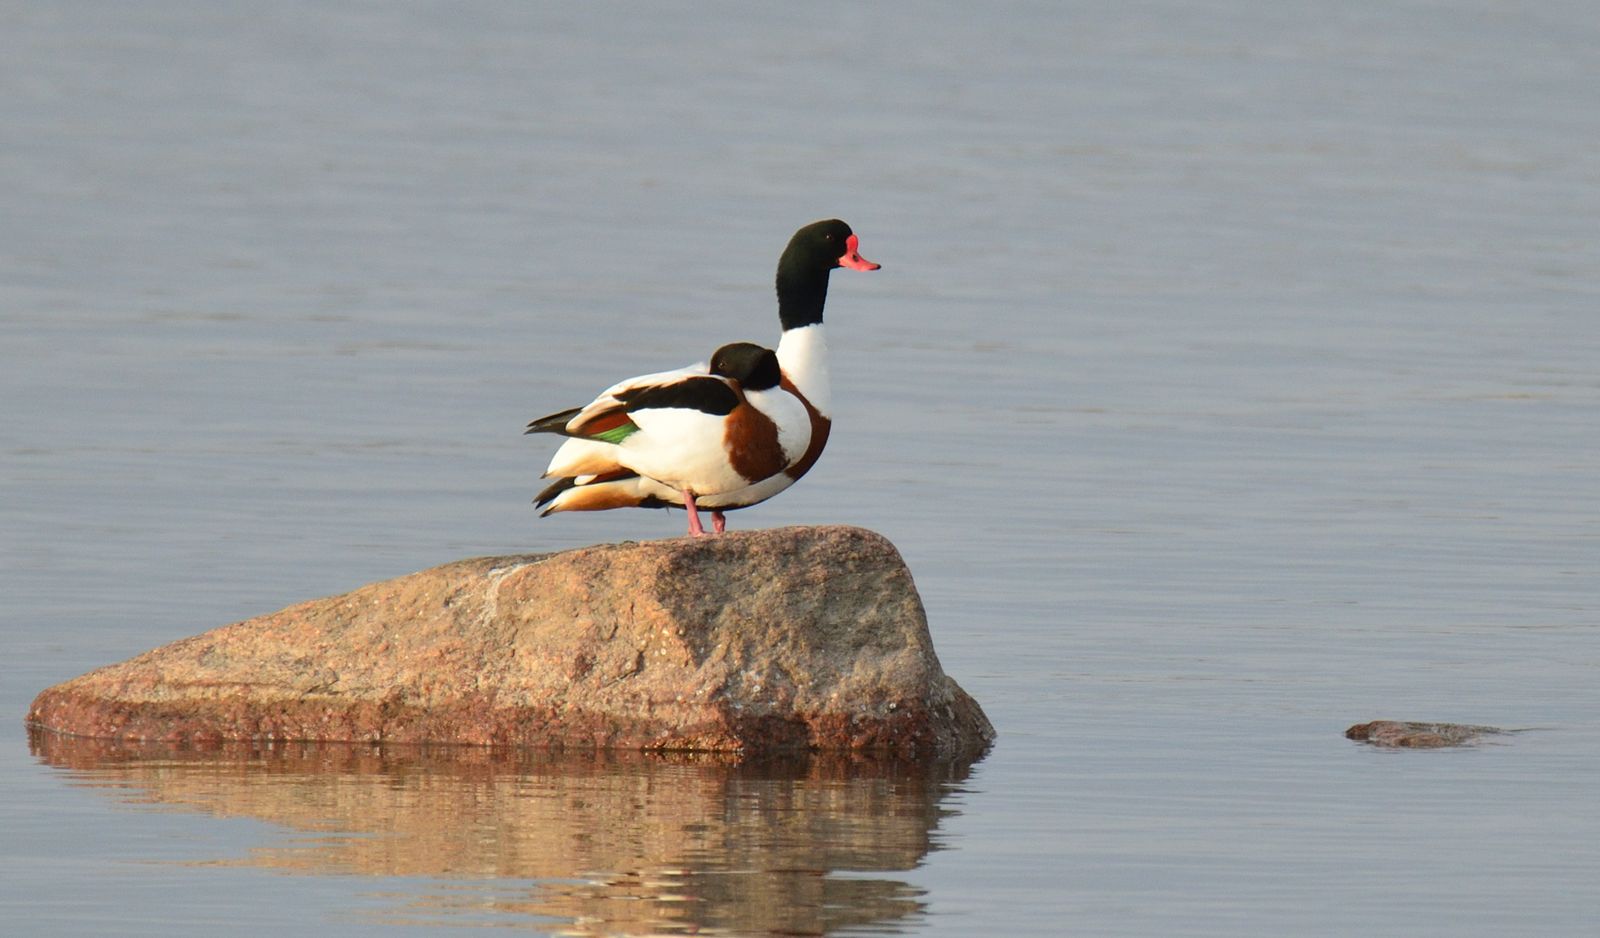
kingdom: Animalia
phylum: Chordata
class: Aves
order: Anseriformes
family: Anatidae
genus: Tadorna
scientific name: Tadorna tadorna
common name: Common shelduck
